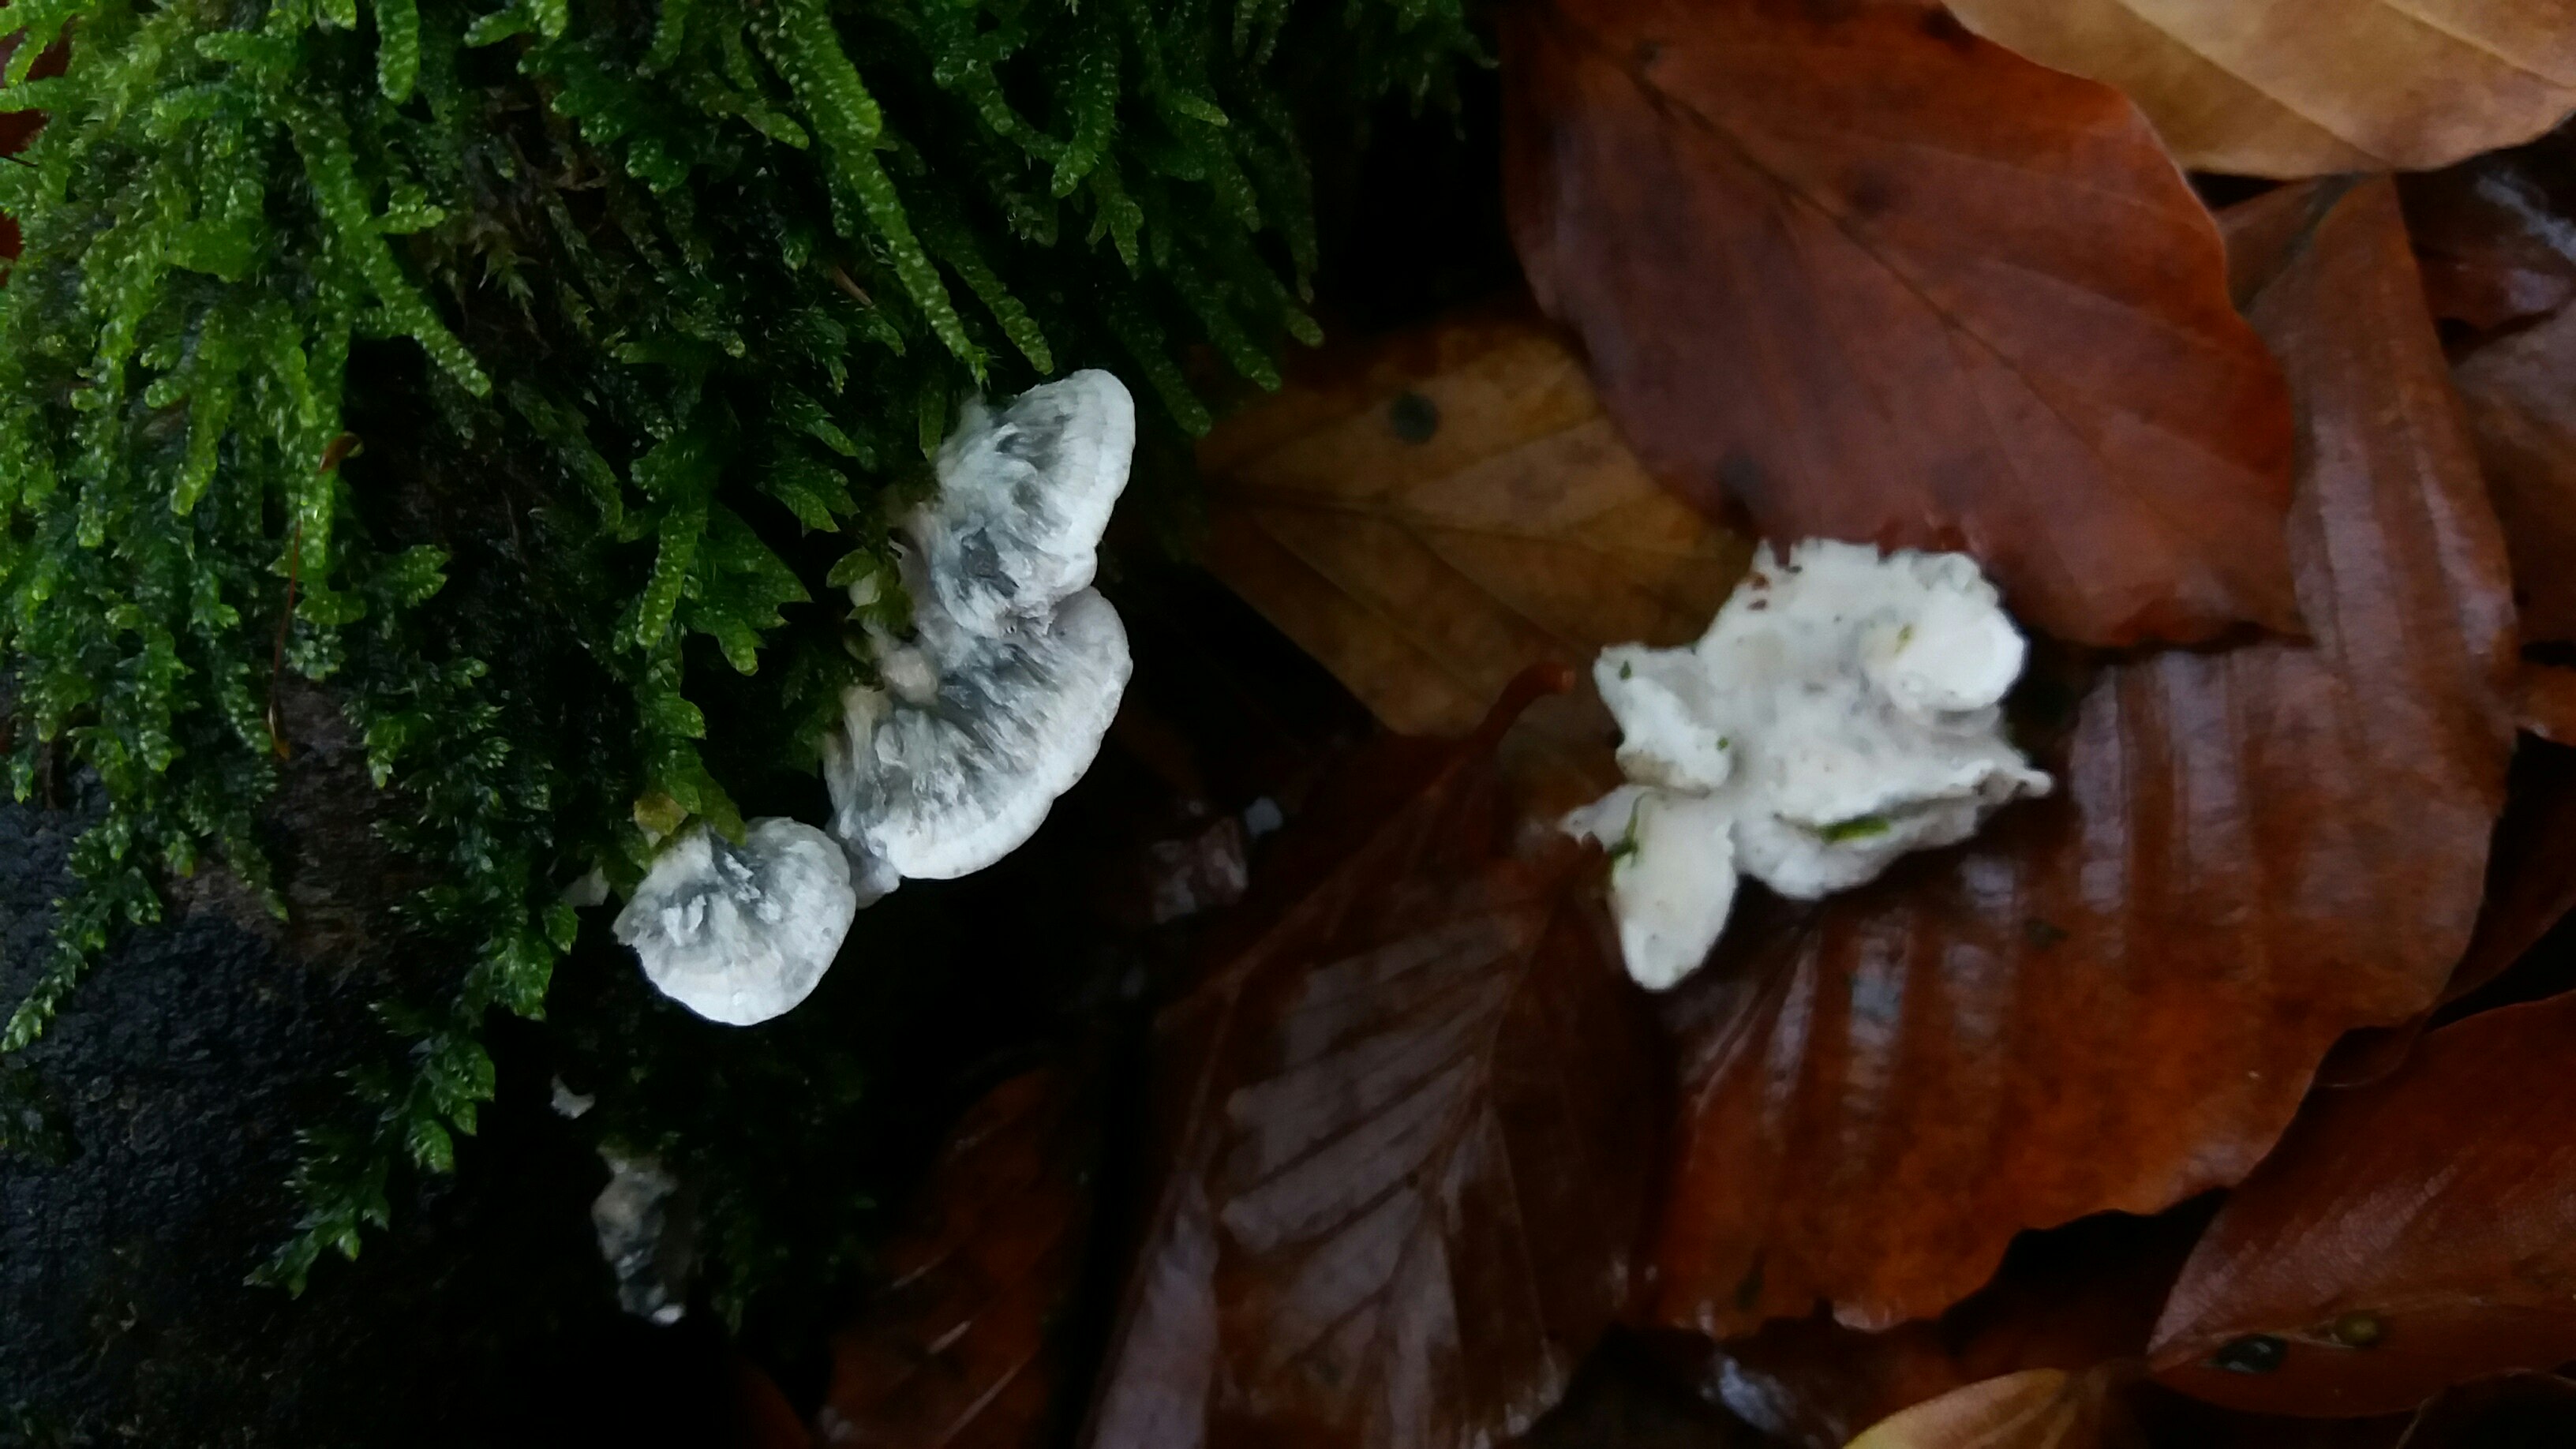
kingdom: Fungi
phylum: Basidiomycota
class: Agaricomycetes
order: Polyporales
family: Polyporaceae
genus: Cyanosporus
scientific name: Cyanosporus alni
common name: blegblå kødporesvamp
